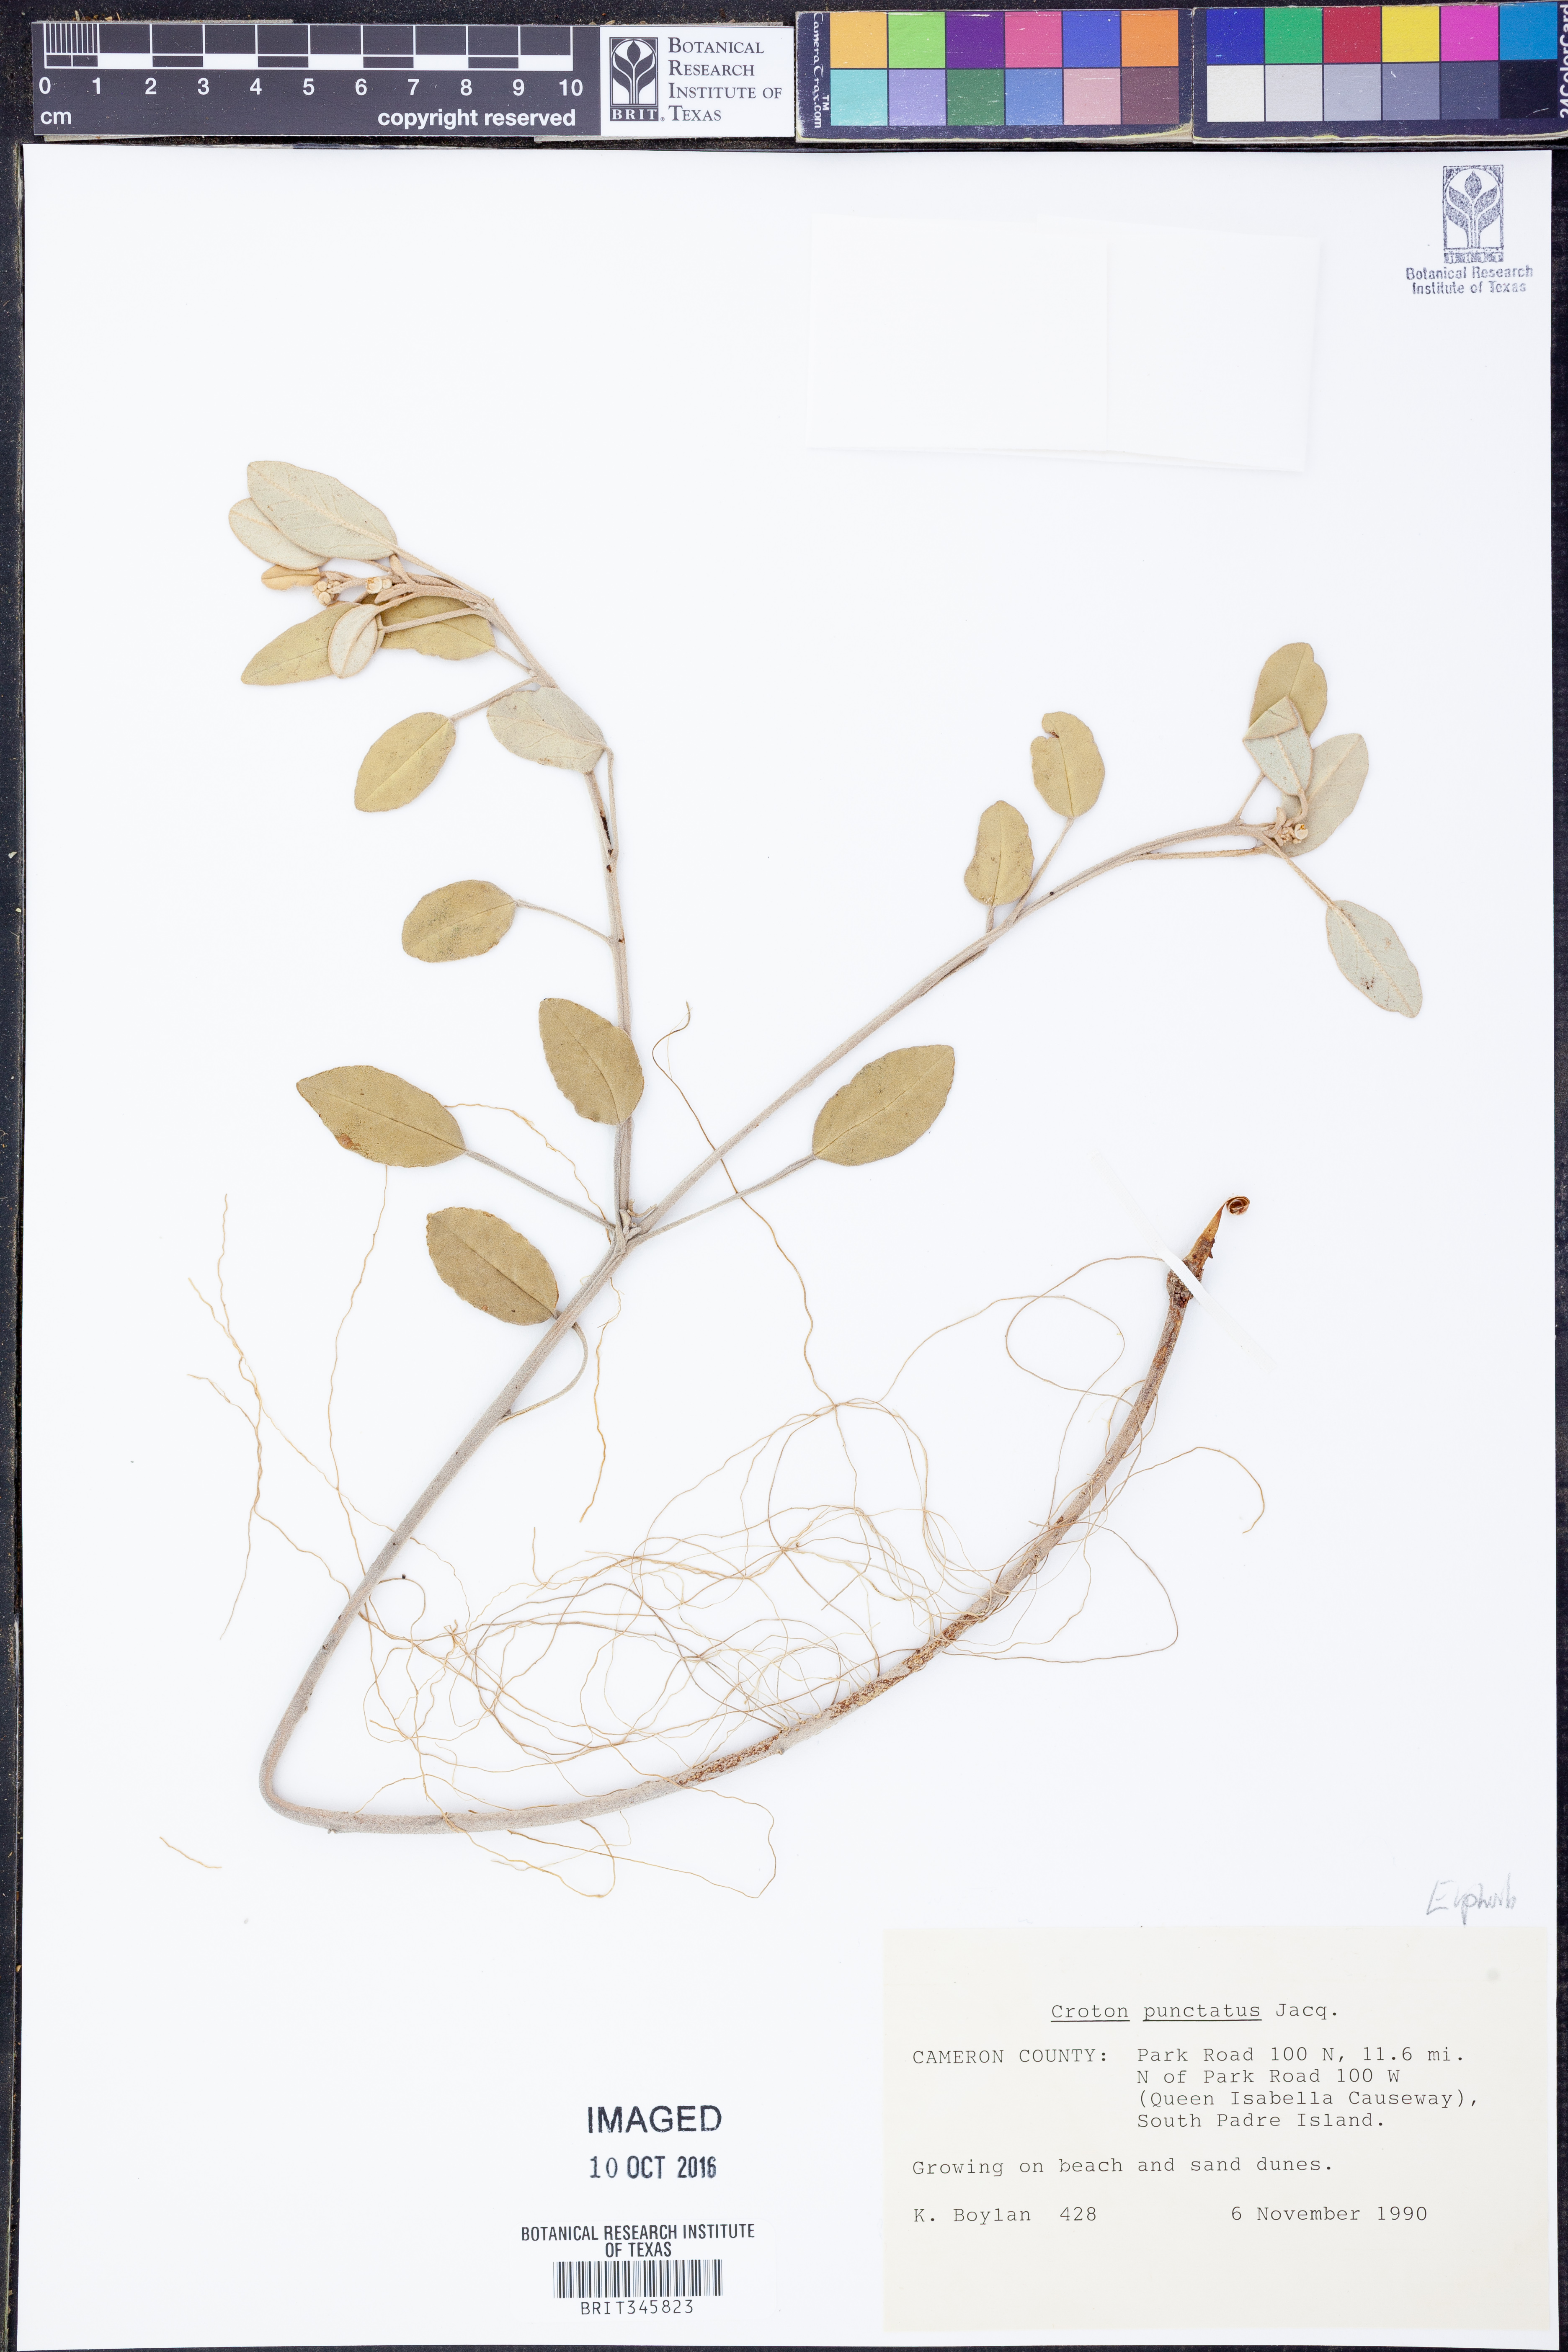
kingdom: Plantae
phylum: Tracheophyta
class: Magnoliopsida
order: Malpighiales
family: Euphorbiaceae
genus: Croton
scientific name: Croton punctatus
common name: Beach-tea
